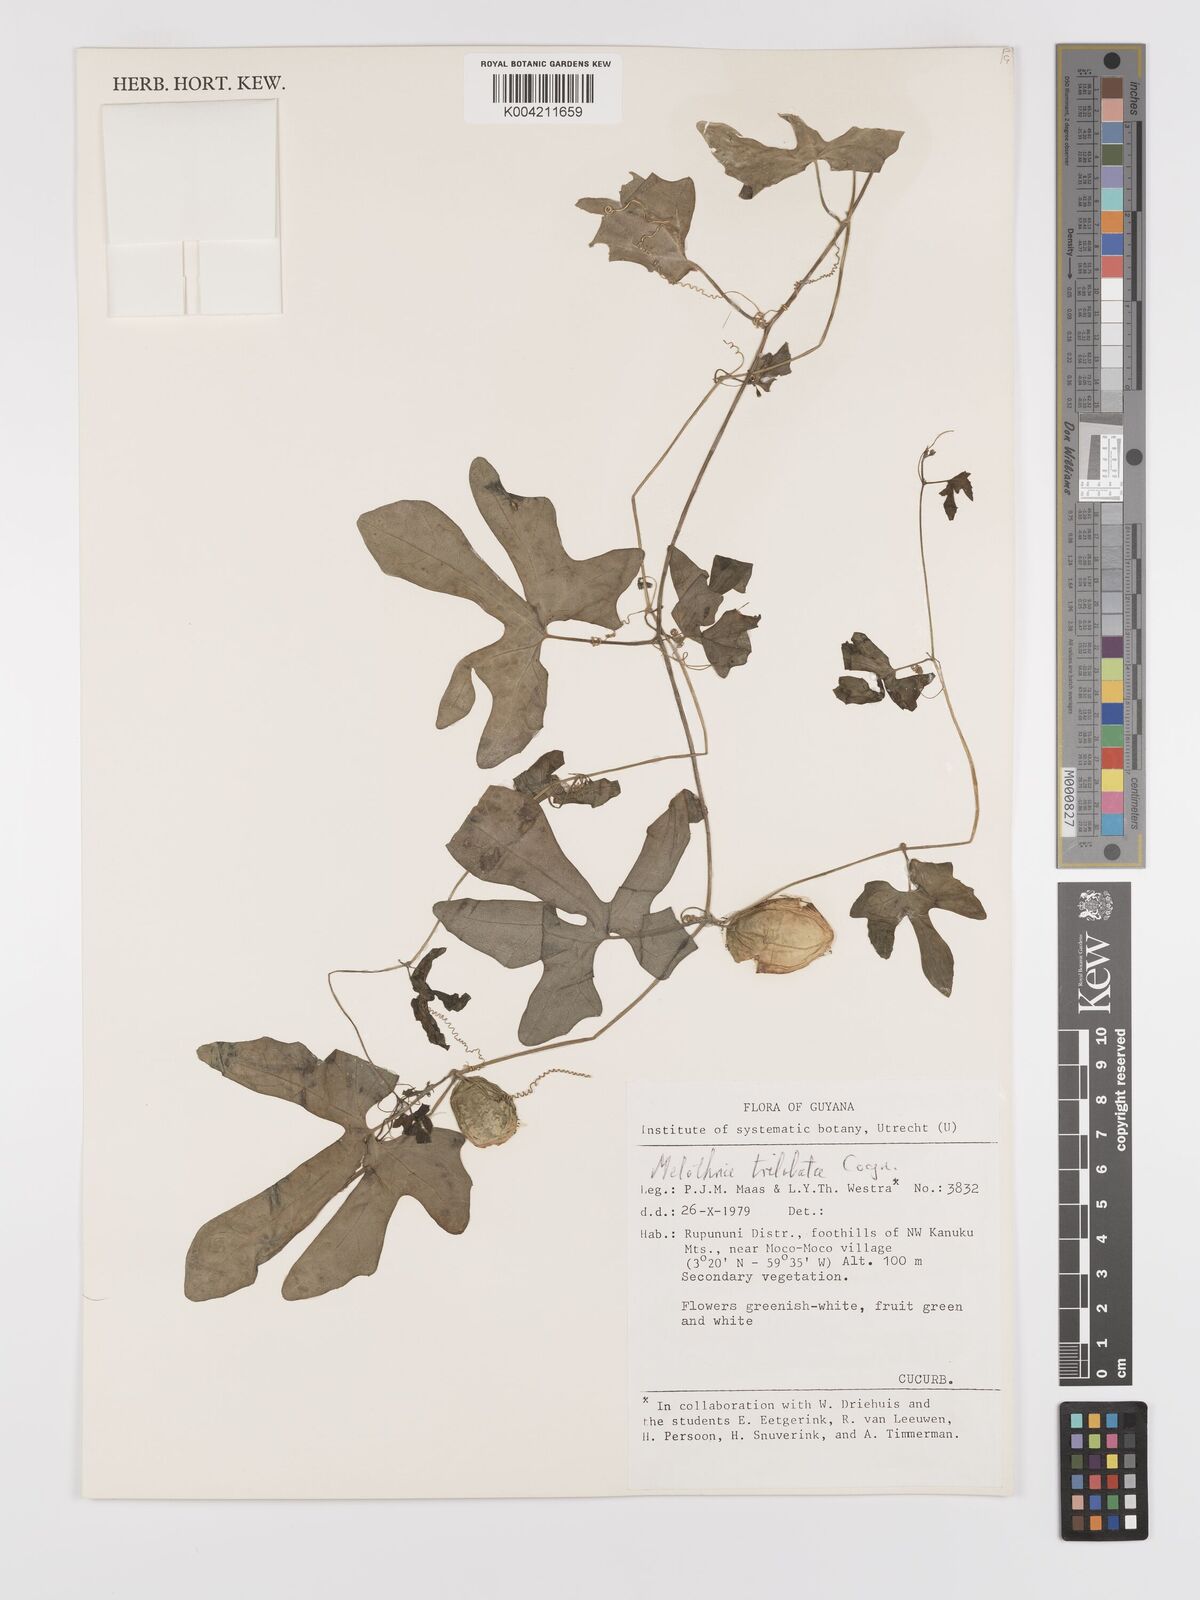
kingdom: Plantae
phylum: Tracheophyta
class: Magnoliopsida
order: Cucurbitales
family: Cucurbitaceae
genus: Melothria
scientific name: Melothria trilobata
